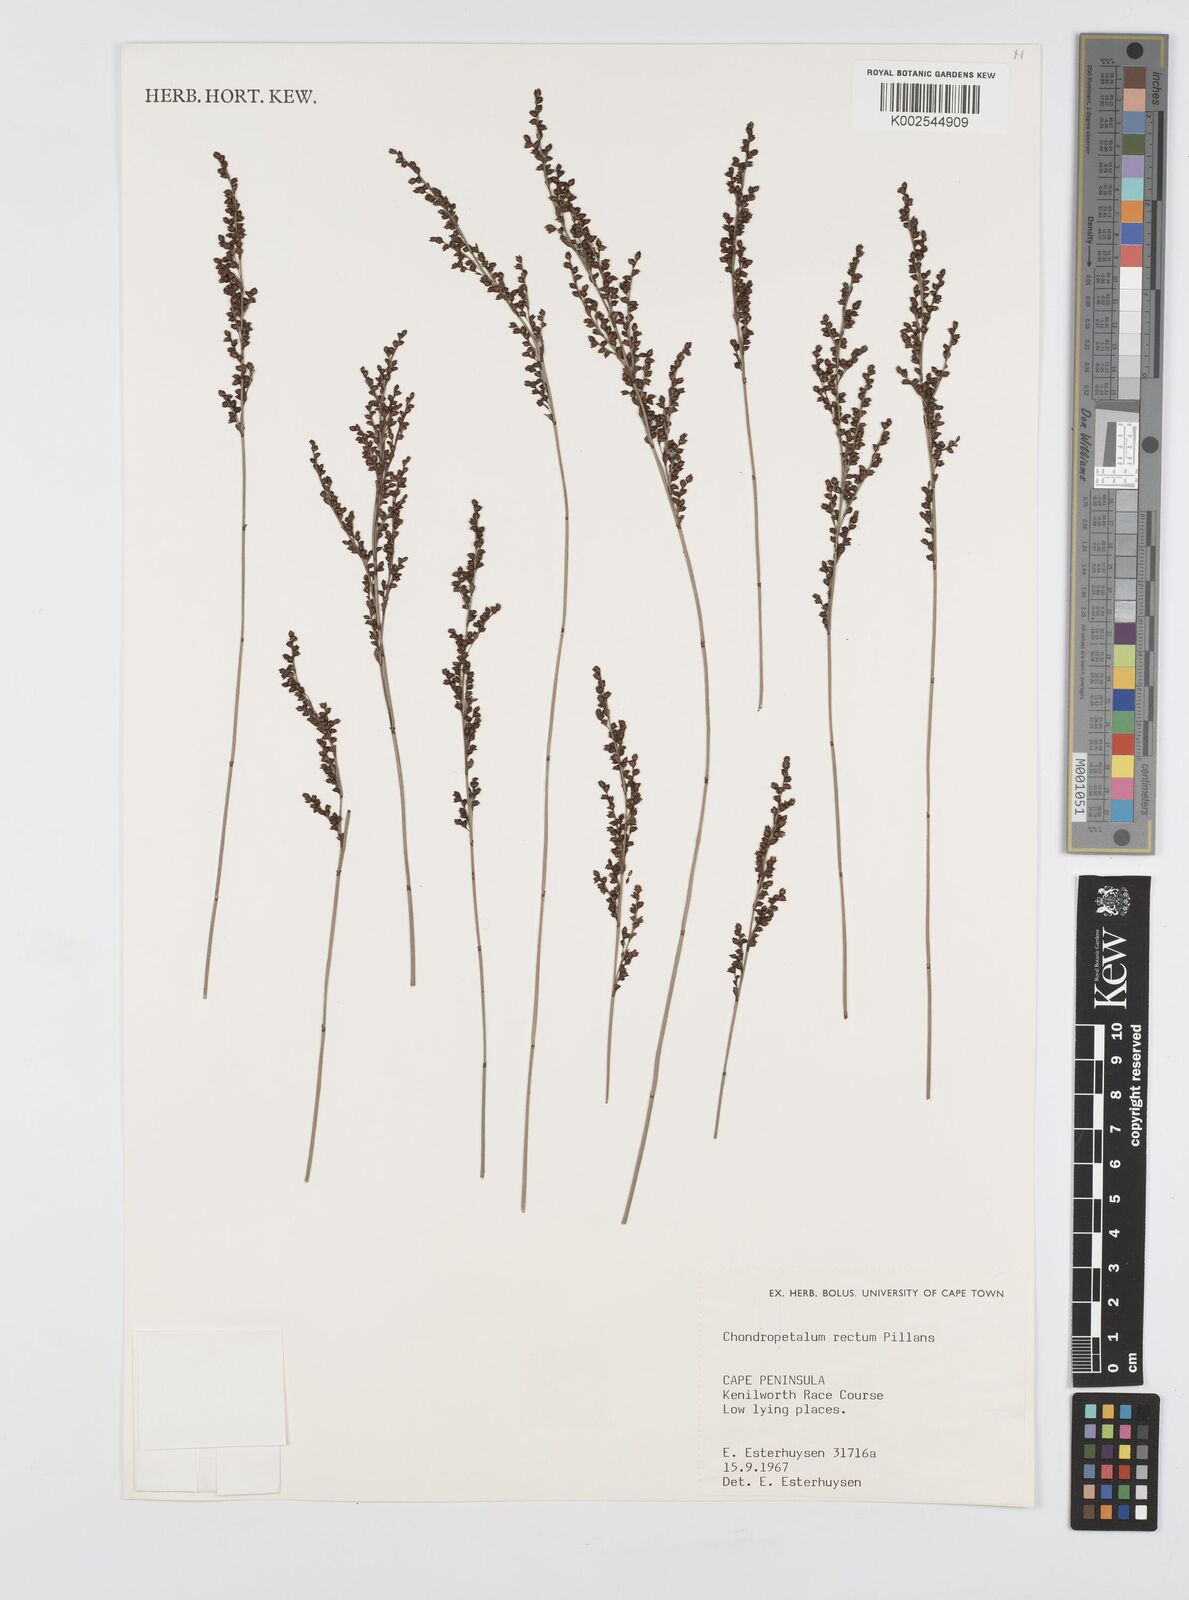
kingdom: Plantae
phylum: Tracheophyta
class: Liliopsida
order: Poales
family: Restionaceae
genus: Elegia
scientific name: Elegia recta
